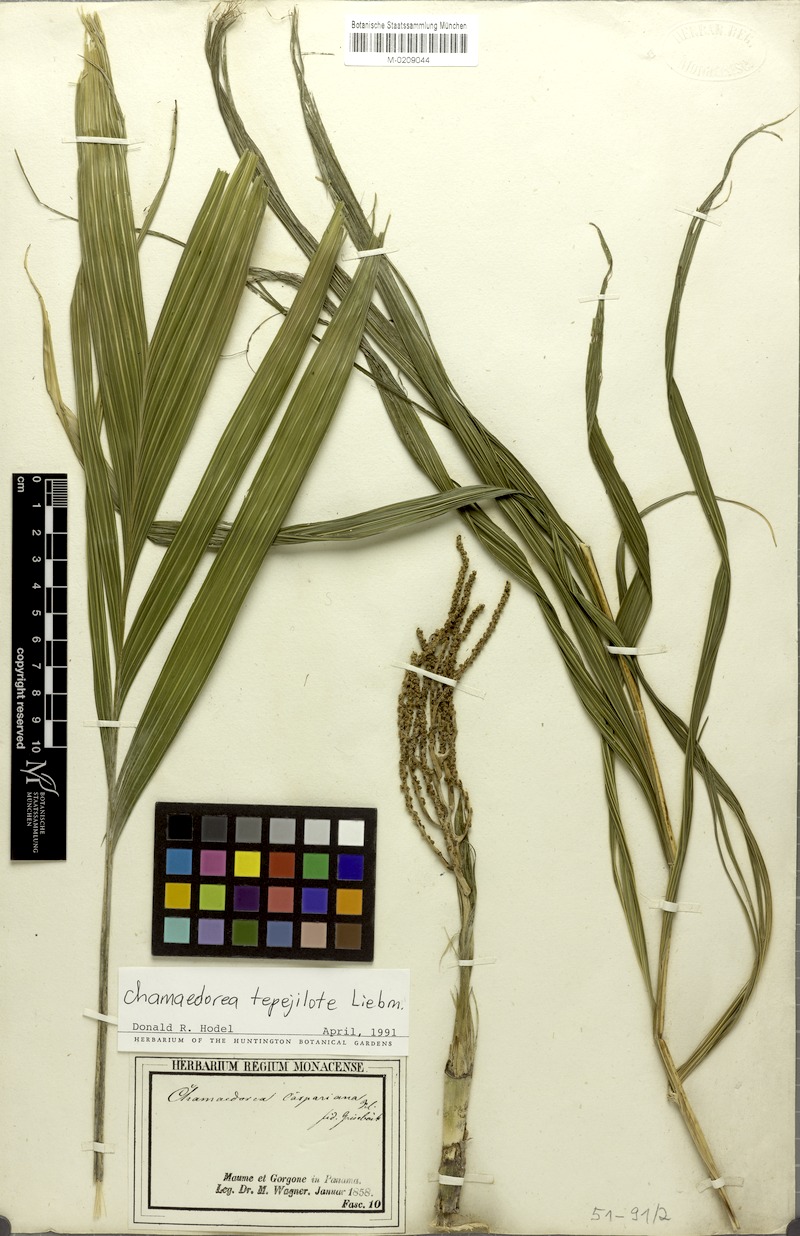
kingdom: Plantae
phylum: Tracheophyta
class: Liliopsida
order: Arecales
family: Arecaceae
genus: Chamaedorea
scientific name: Chamaedorea tepejilote
